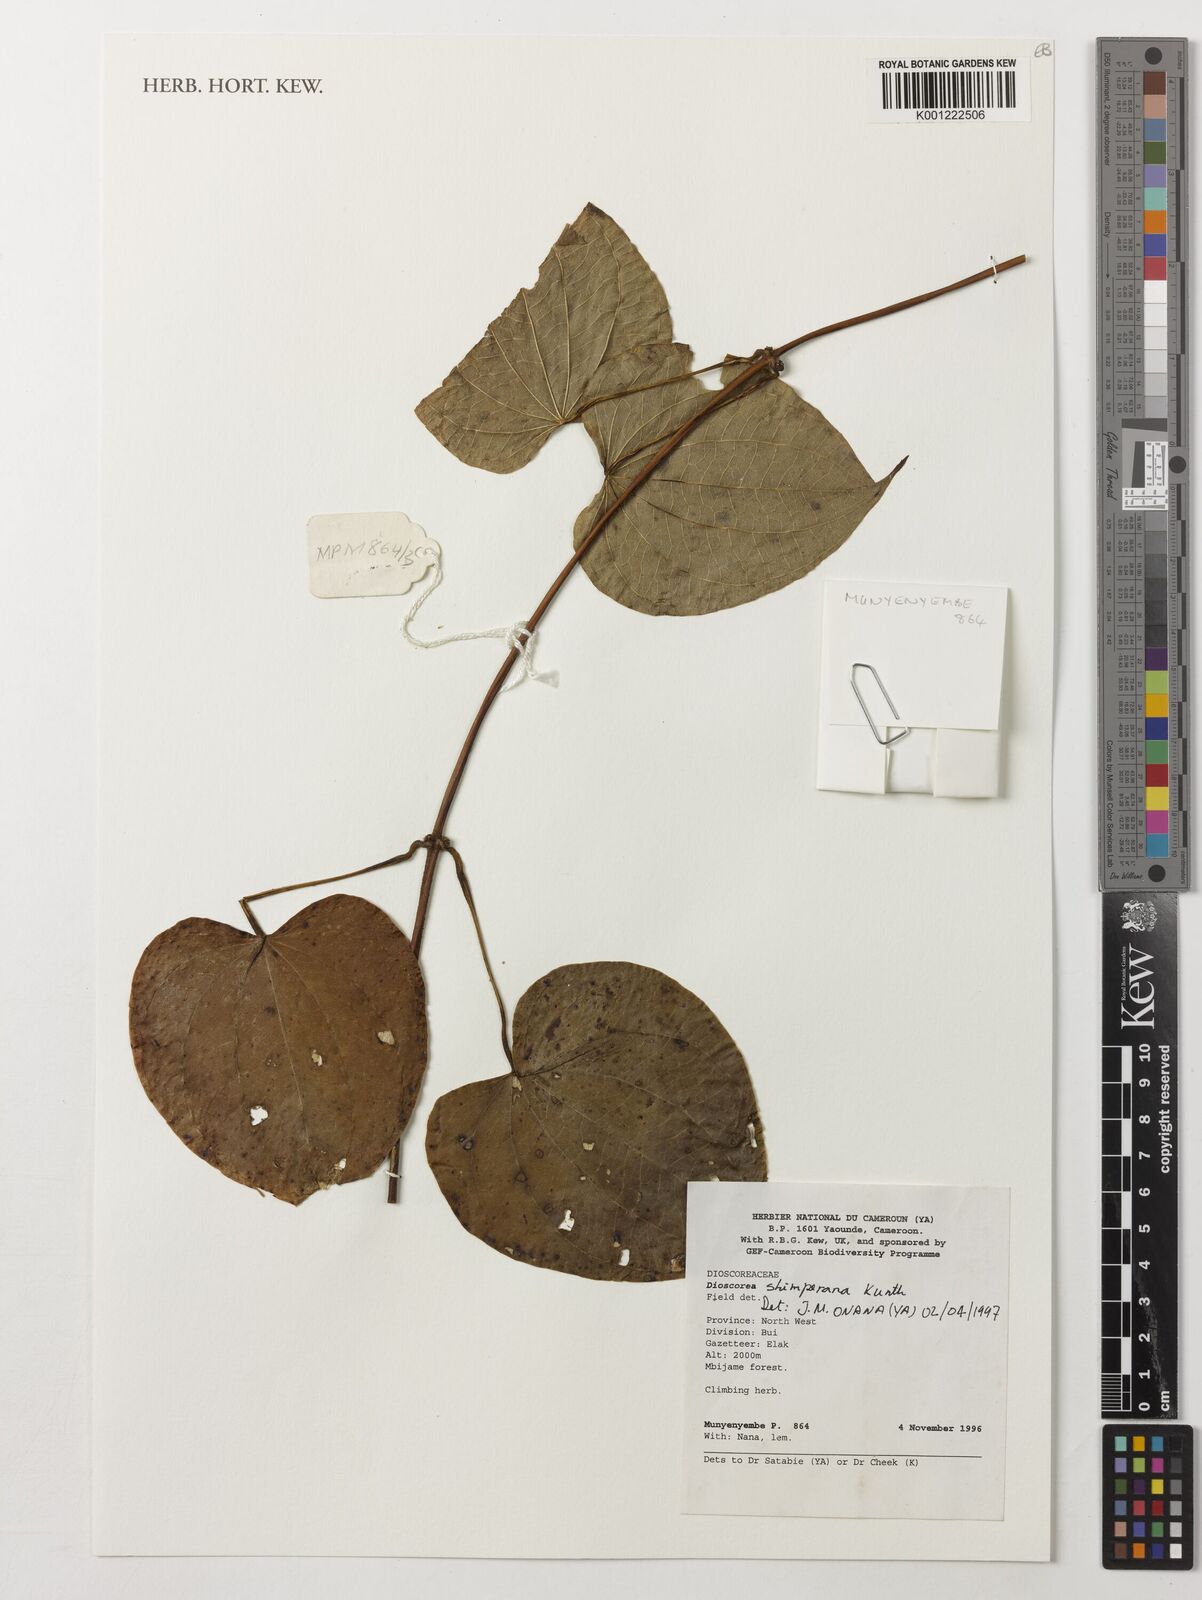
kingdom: Plantae
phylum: Tracheophyta
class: Liliopsida
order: Dioscoreales
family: Dioscoreaceae
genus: Dioscorea
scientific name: Dioscorea schimperiana
